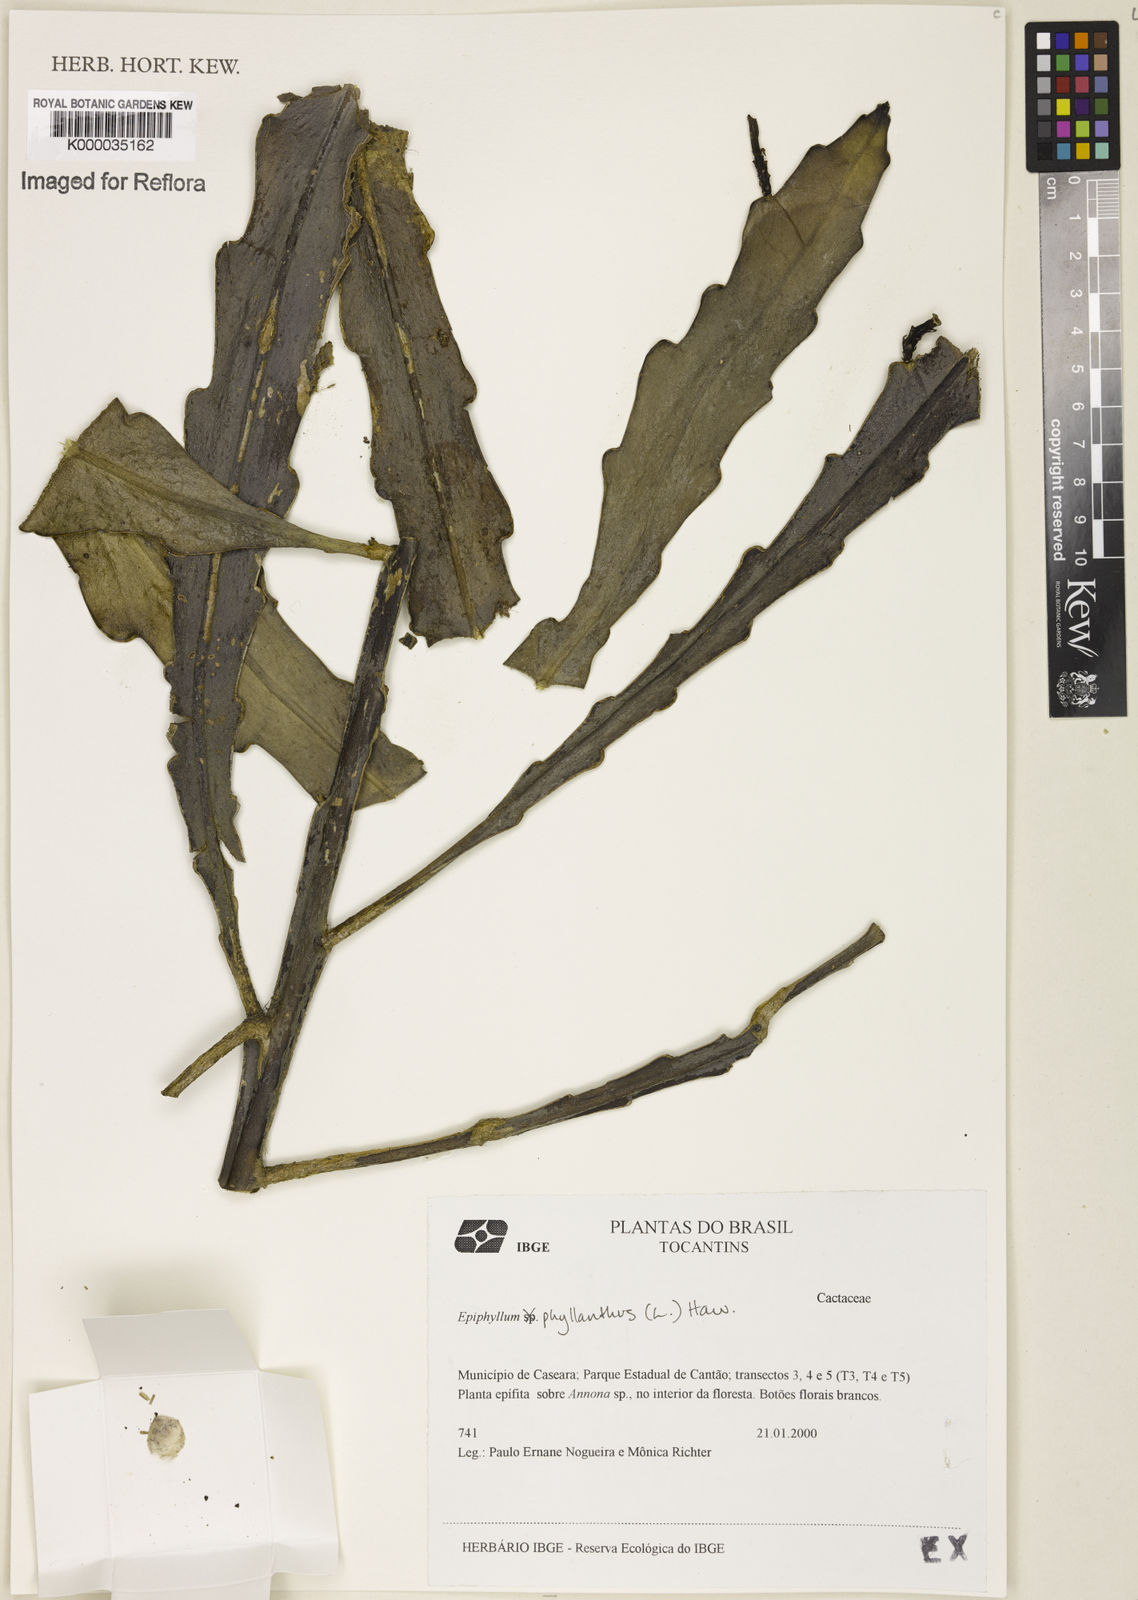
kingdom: Plantae
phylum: Tracheophyta
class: Magnoliopsida
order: Caryophyllales
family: Cactaceae
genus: Epiphyllum
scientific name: Epiphyllum phyllanthus
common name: Climbing cactus
